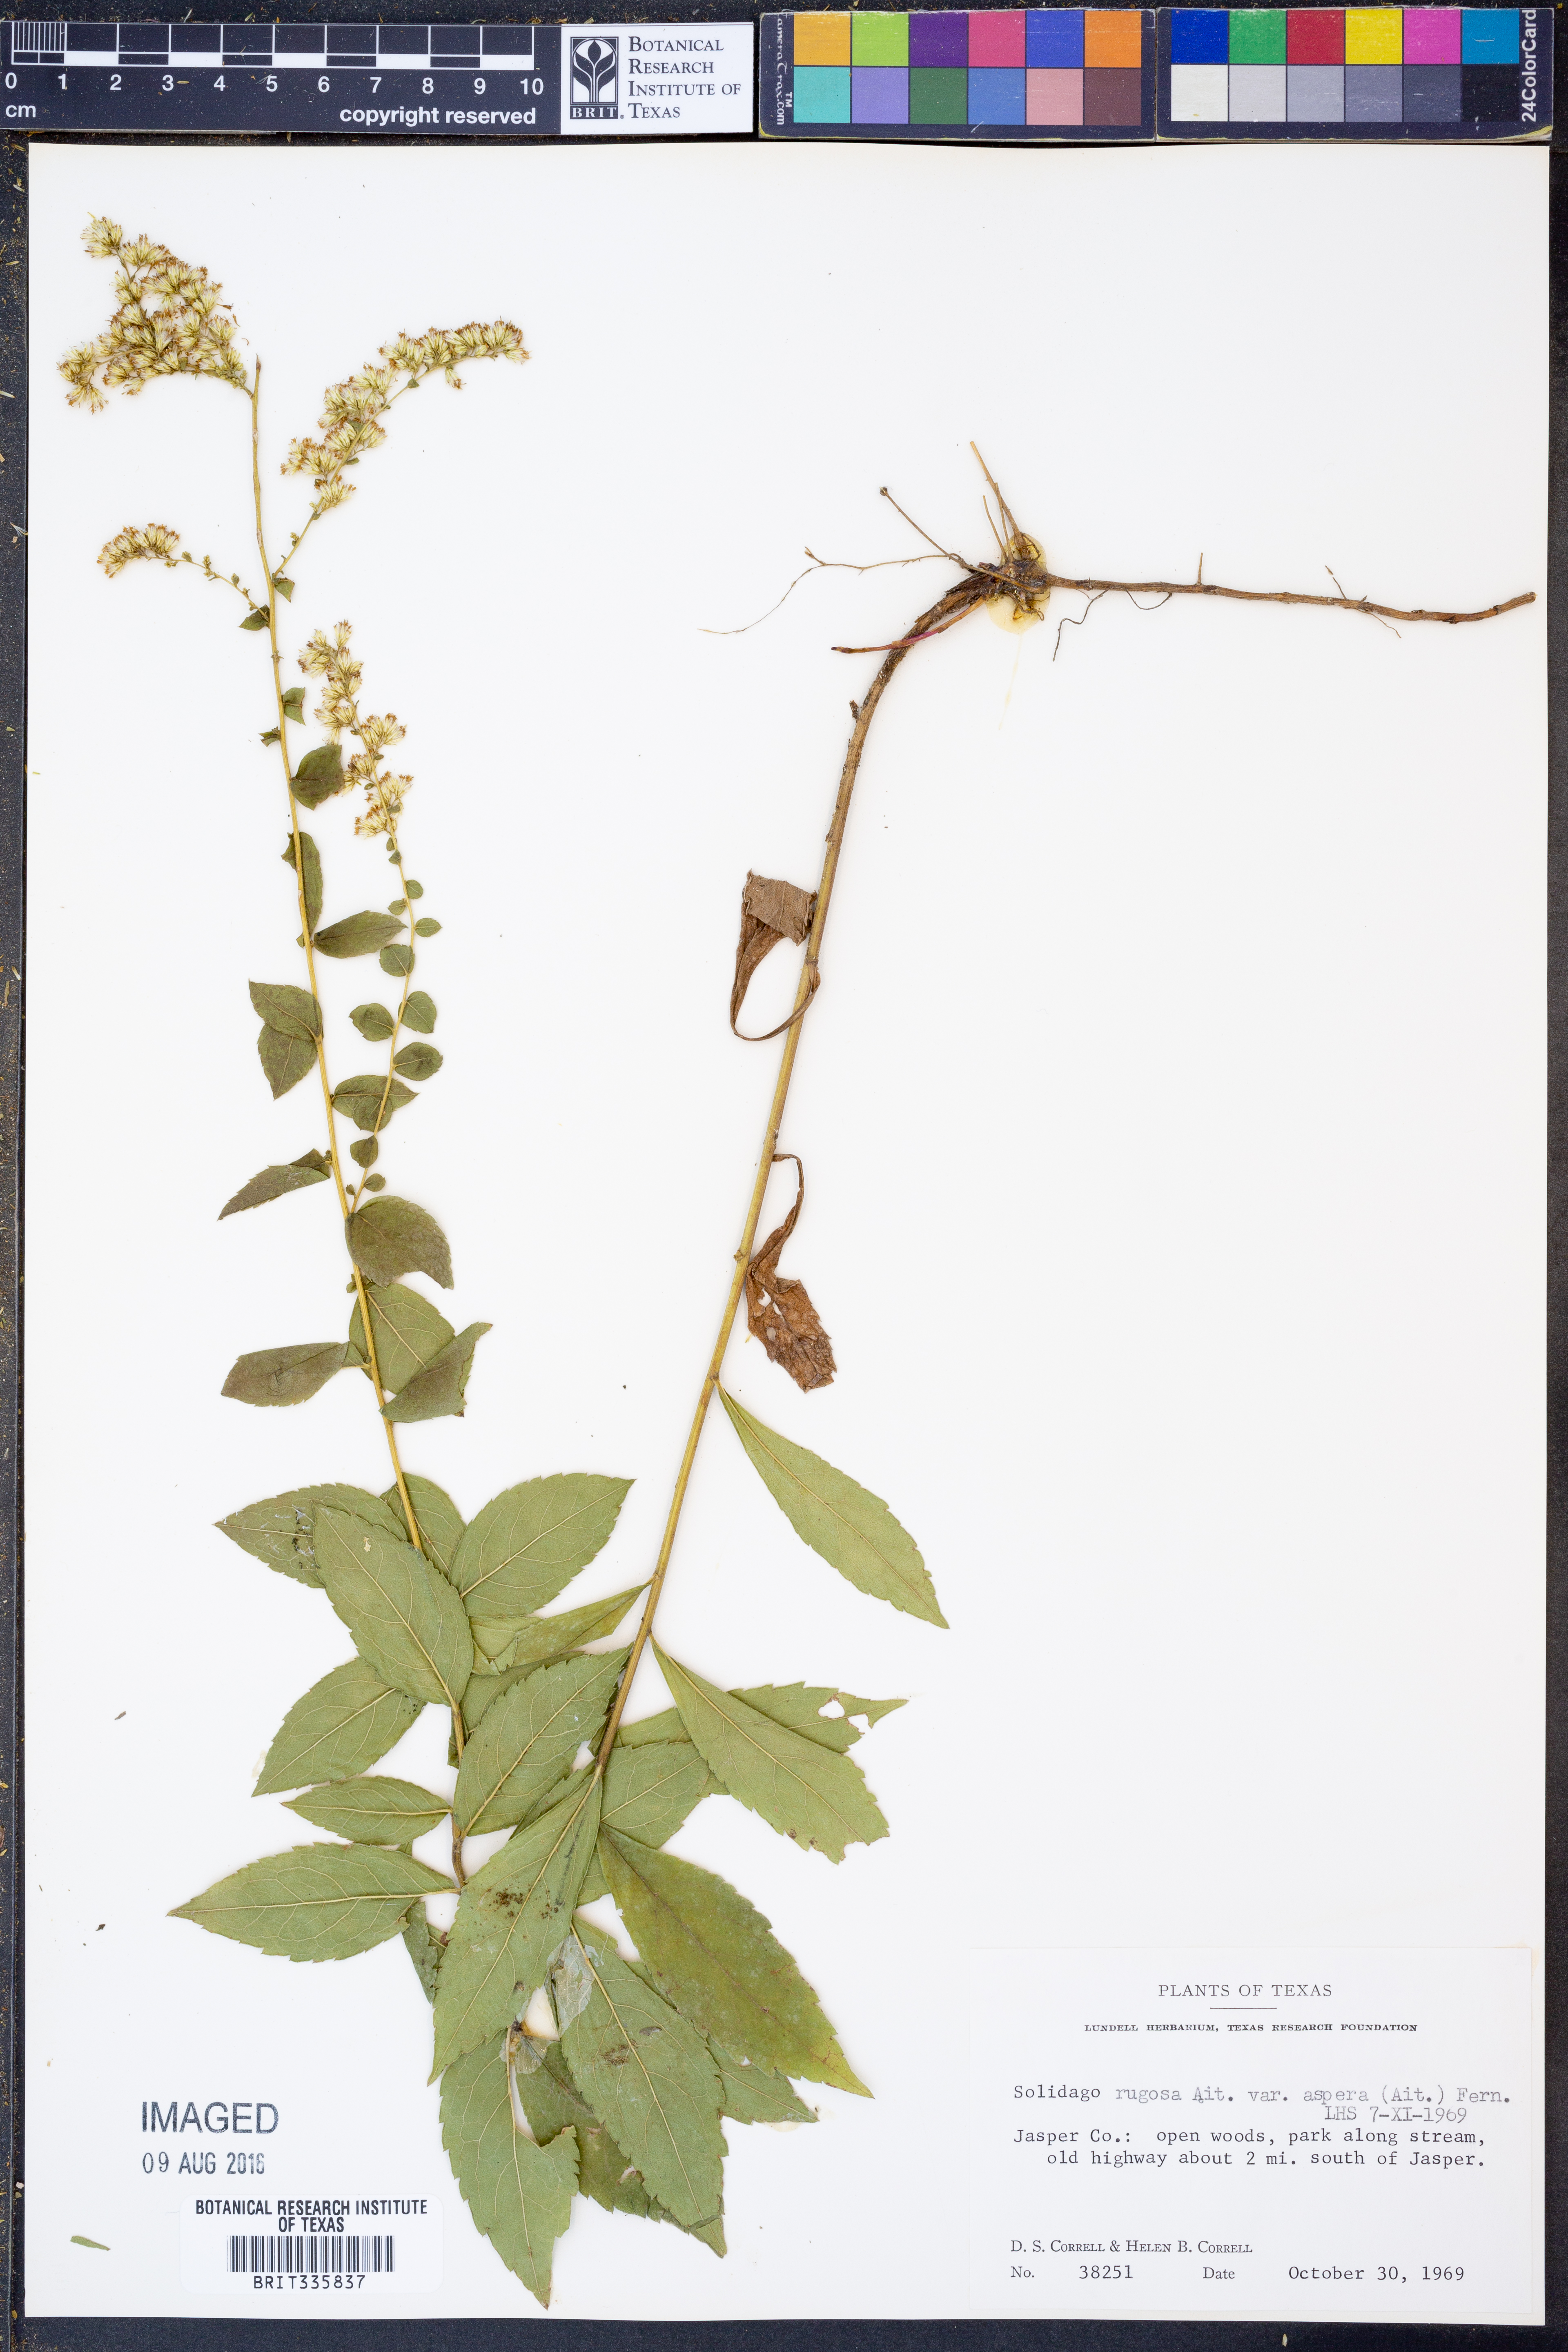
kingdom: Plantae
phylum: Tracheophyta
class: Magnoliopsida
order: Asterales
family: Asteraceae
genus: Solidago
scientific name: Solidago rugosa
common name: Rough-stemmed goldenrod
